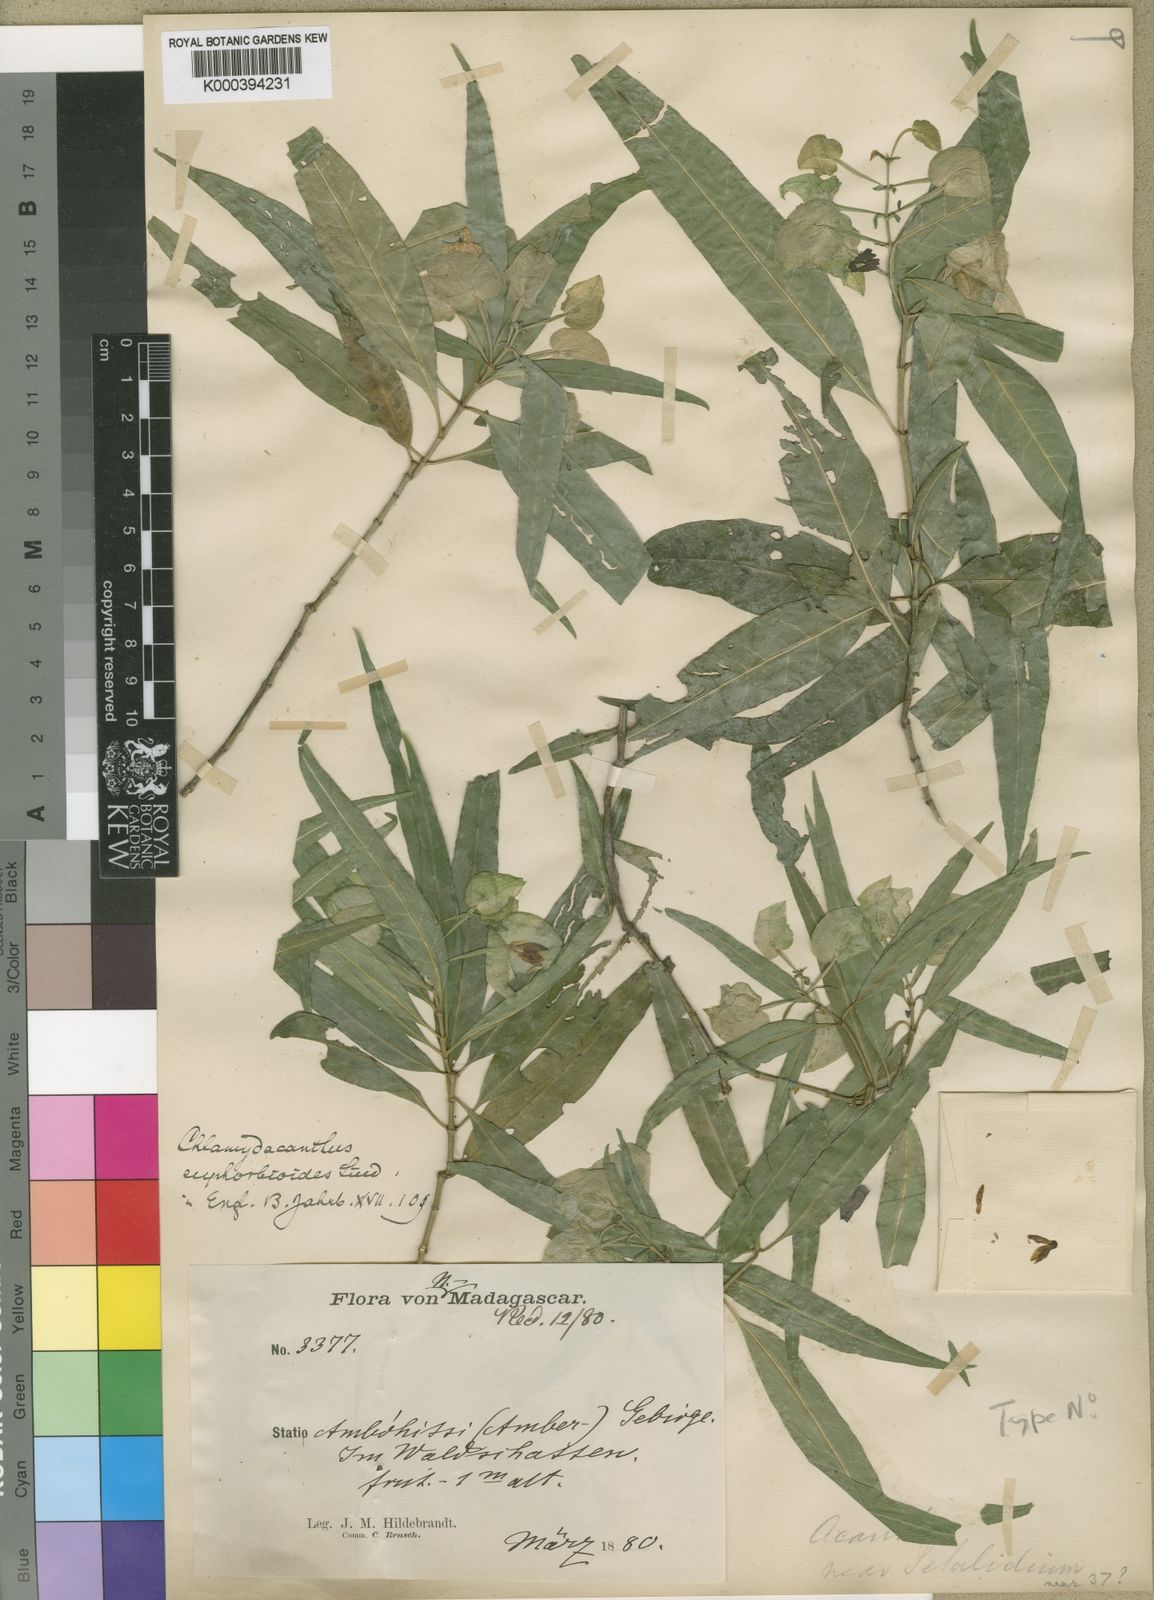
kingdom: Plantae
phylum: Tracheophyta
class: Magnoliopsida
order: Lamiales
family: Acanthaceae
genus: Phaulopsis
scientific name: Phaulopsis rupestris
